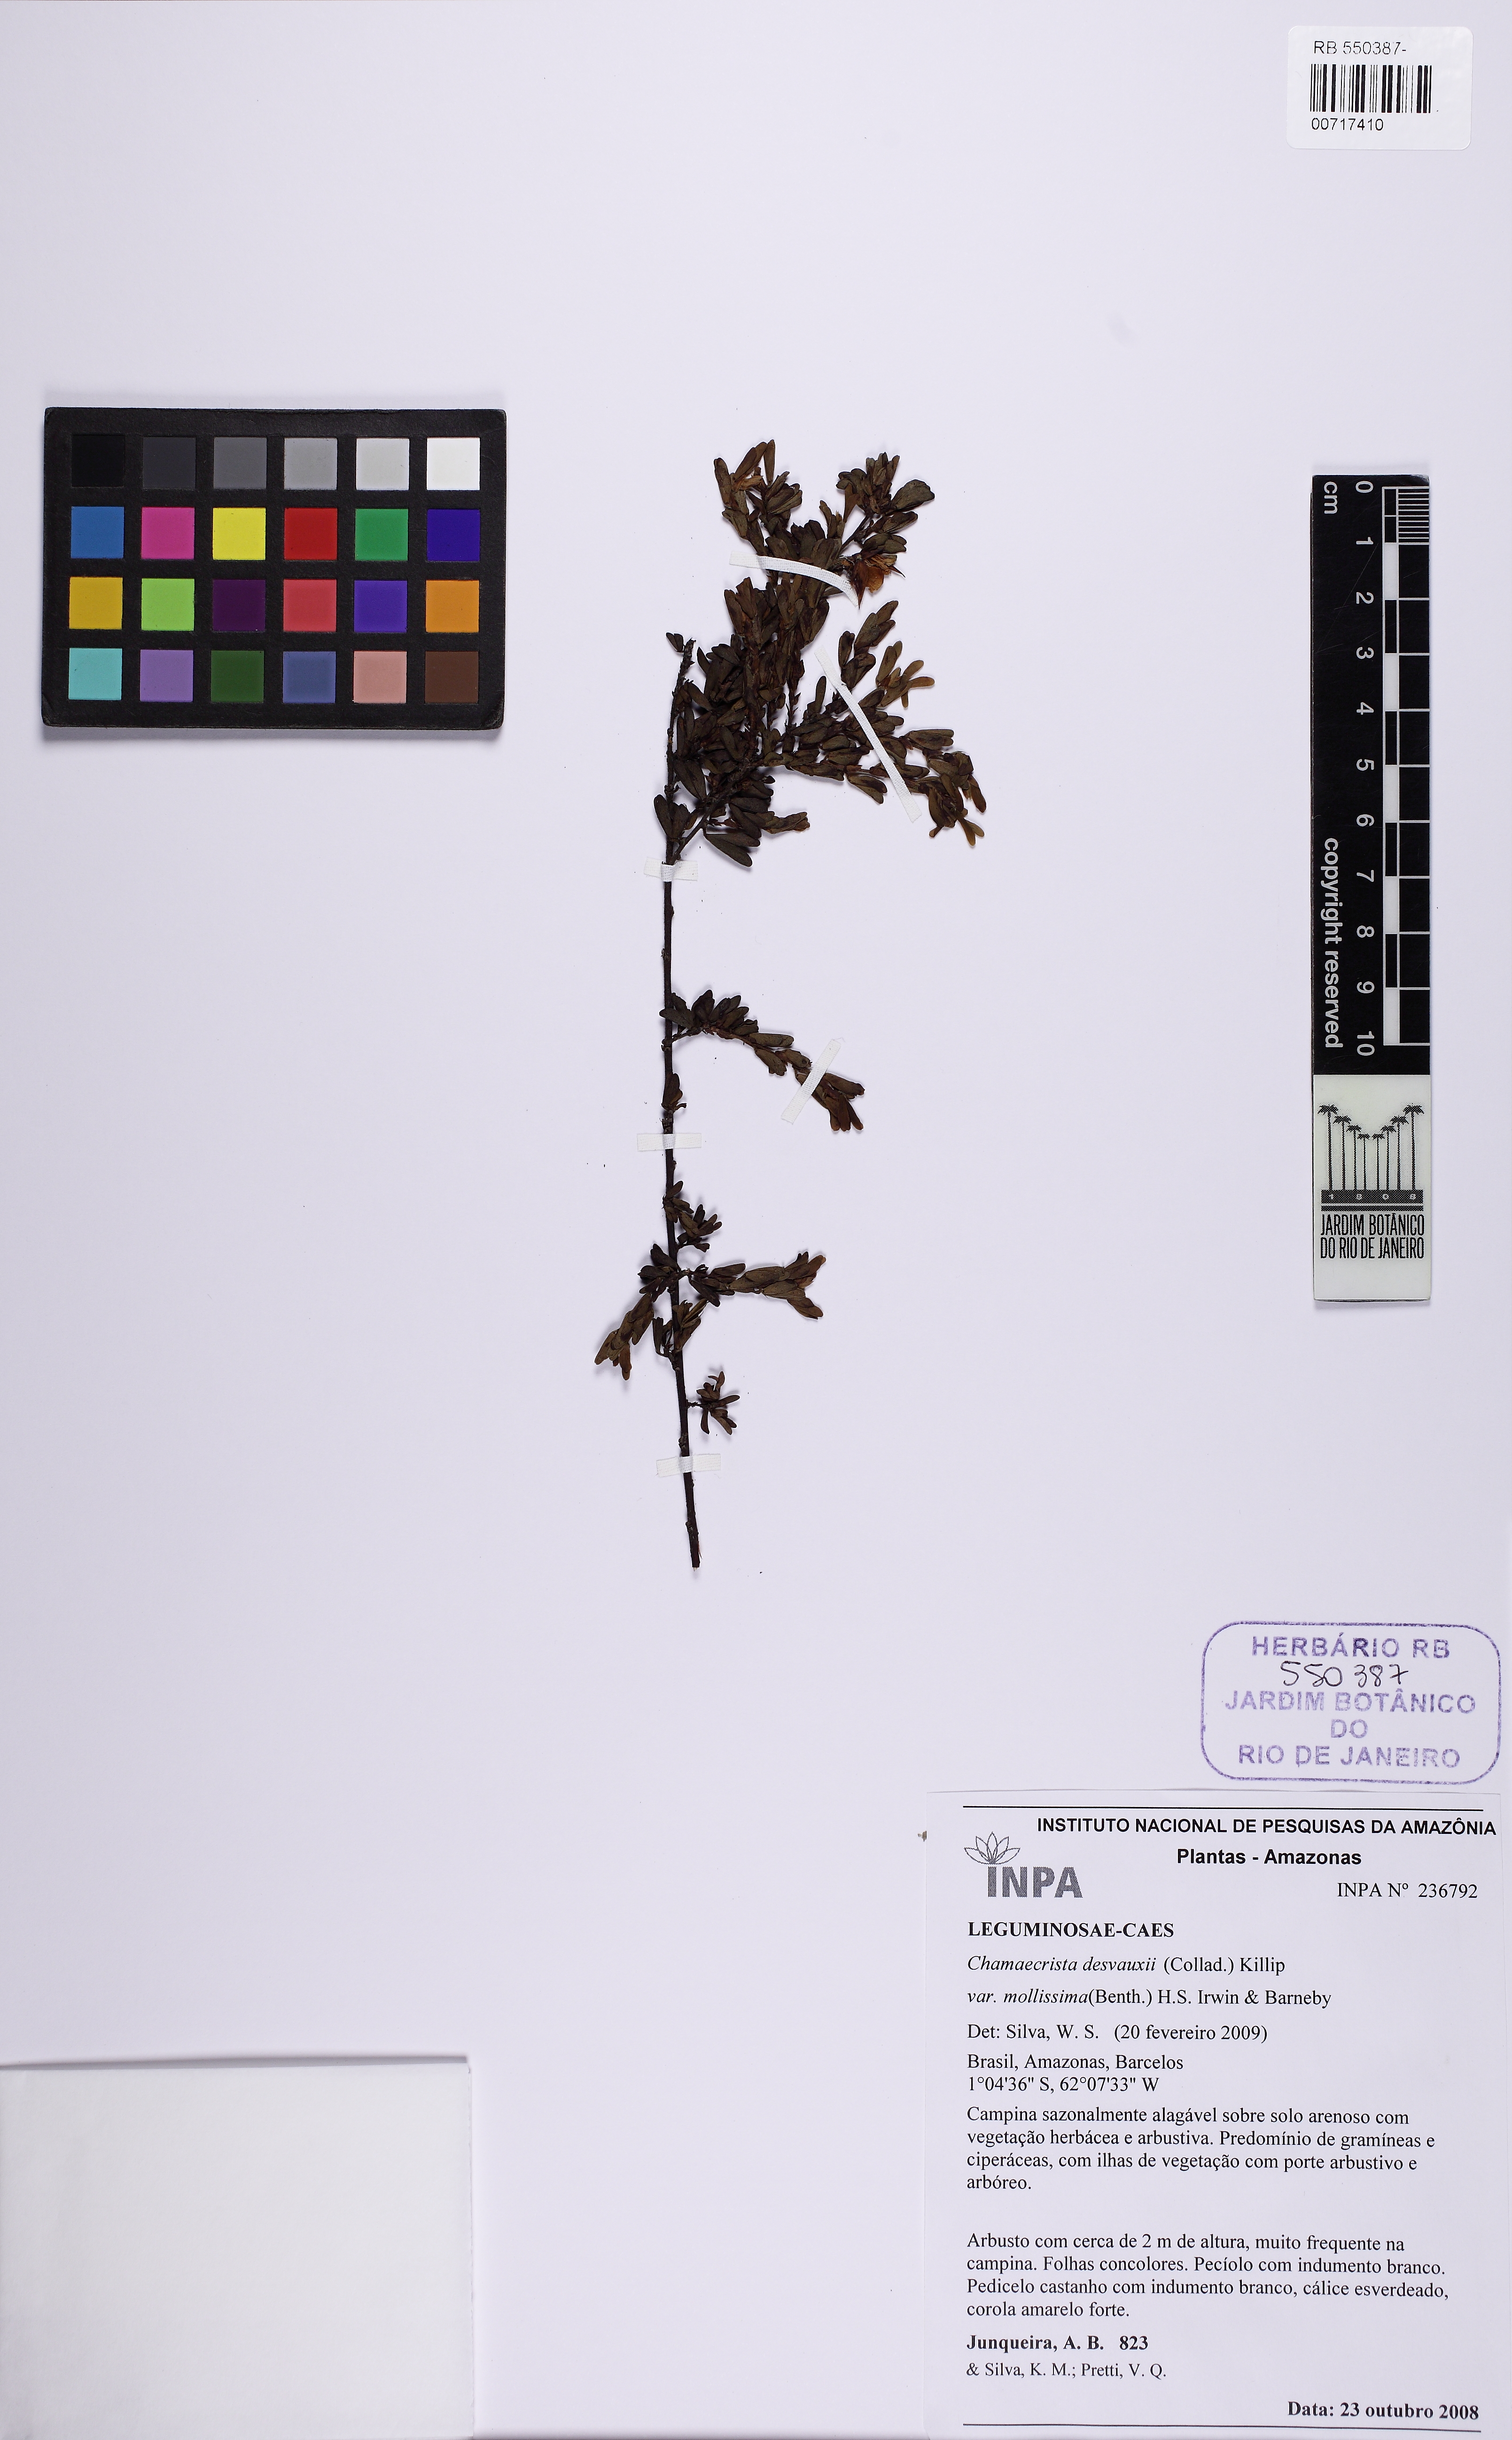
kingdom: Plantae
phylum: Tracheophyta
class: Magnoliopsida
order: Fabales
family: Fabaceae
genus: Chamaecrista
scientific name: Chamaecrista desvauxii
